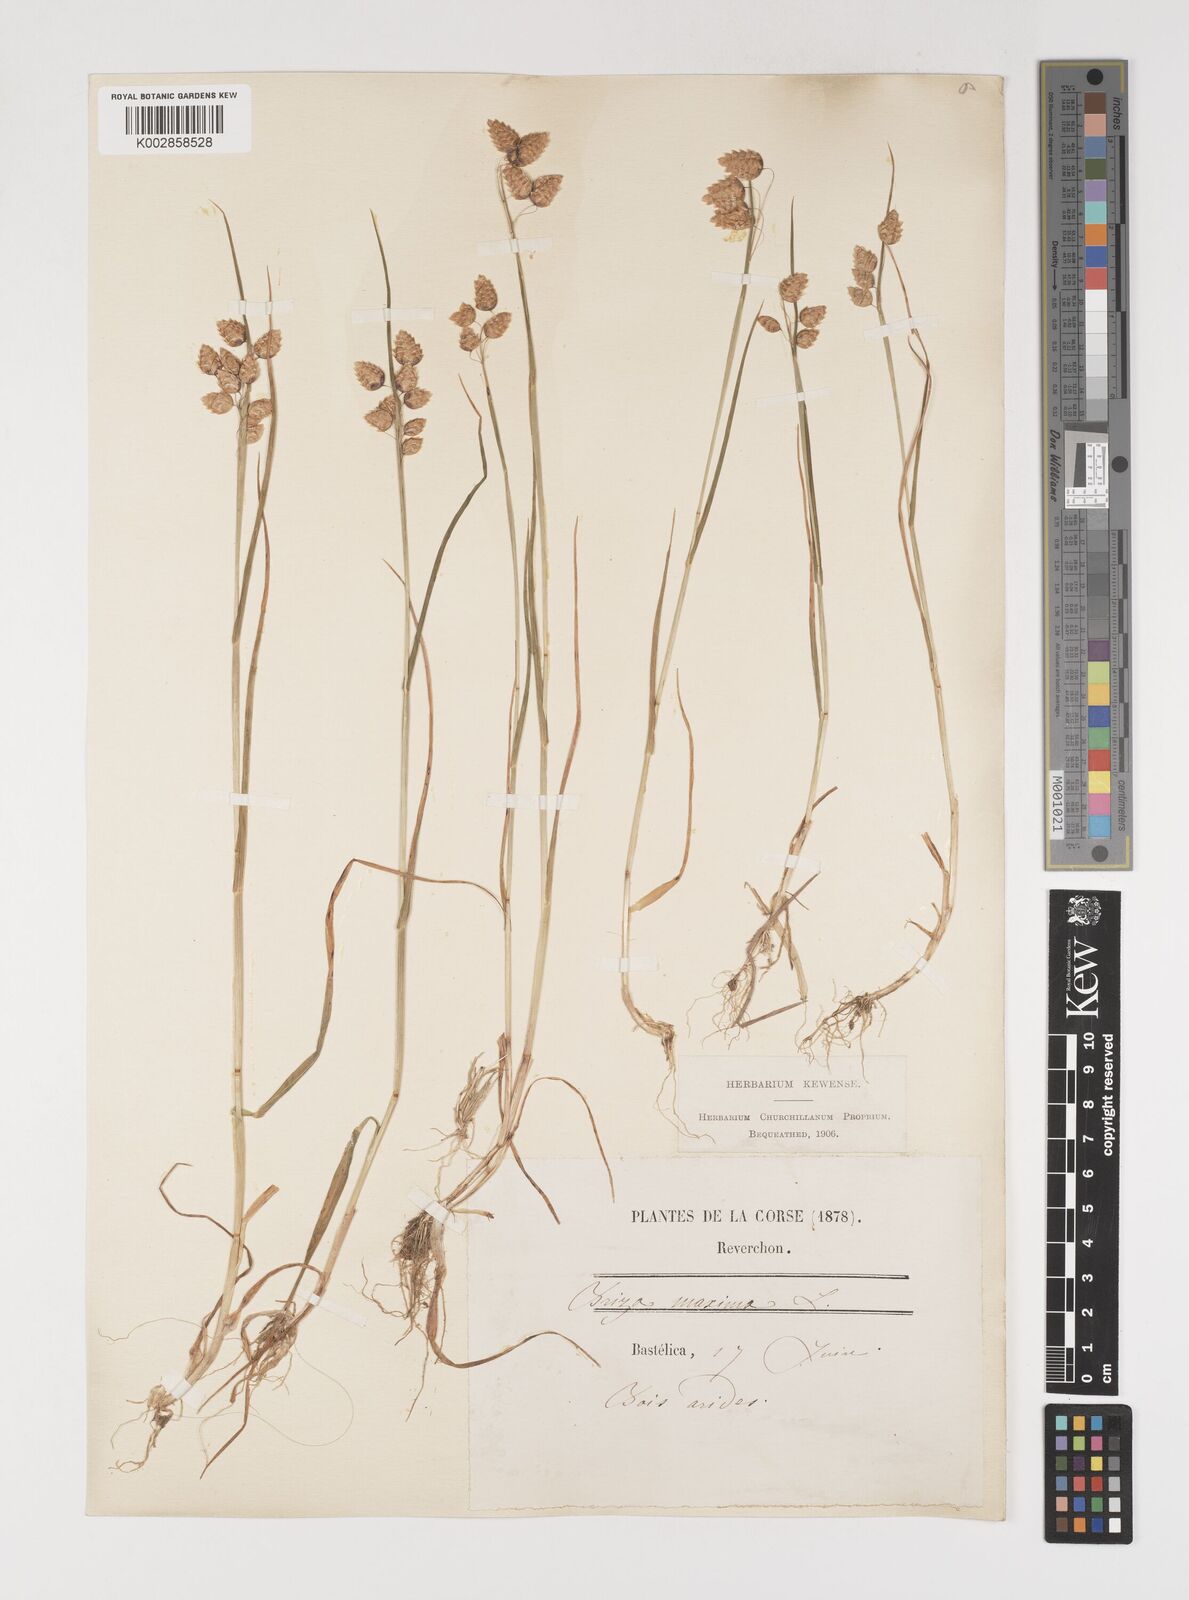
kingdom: Plantae
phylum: Tracheophyta
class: Liliopsida
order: Poales
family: Poaceae
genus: Briza
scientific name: Briza maxima
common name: Big quakinggrass
